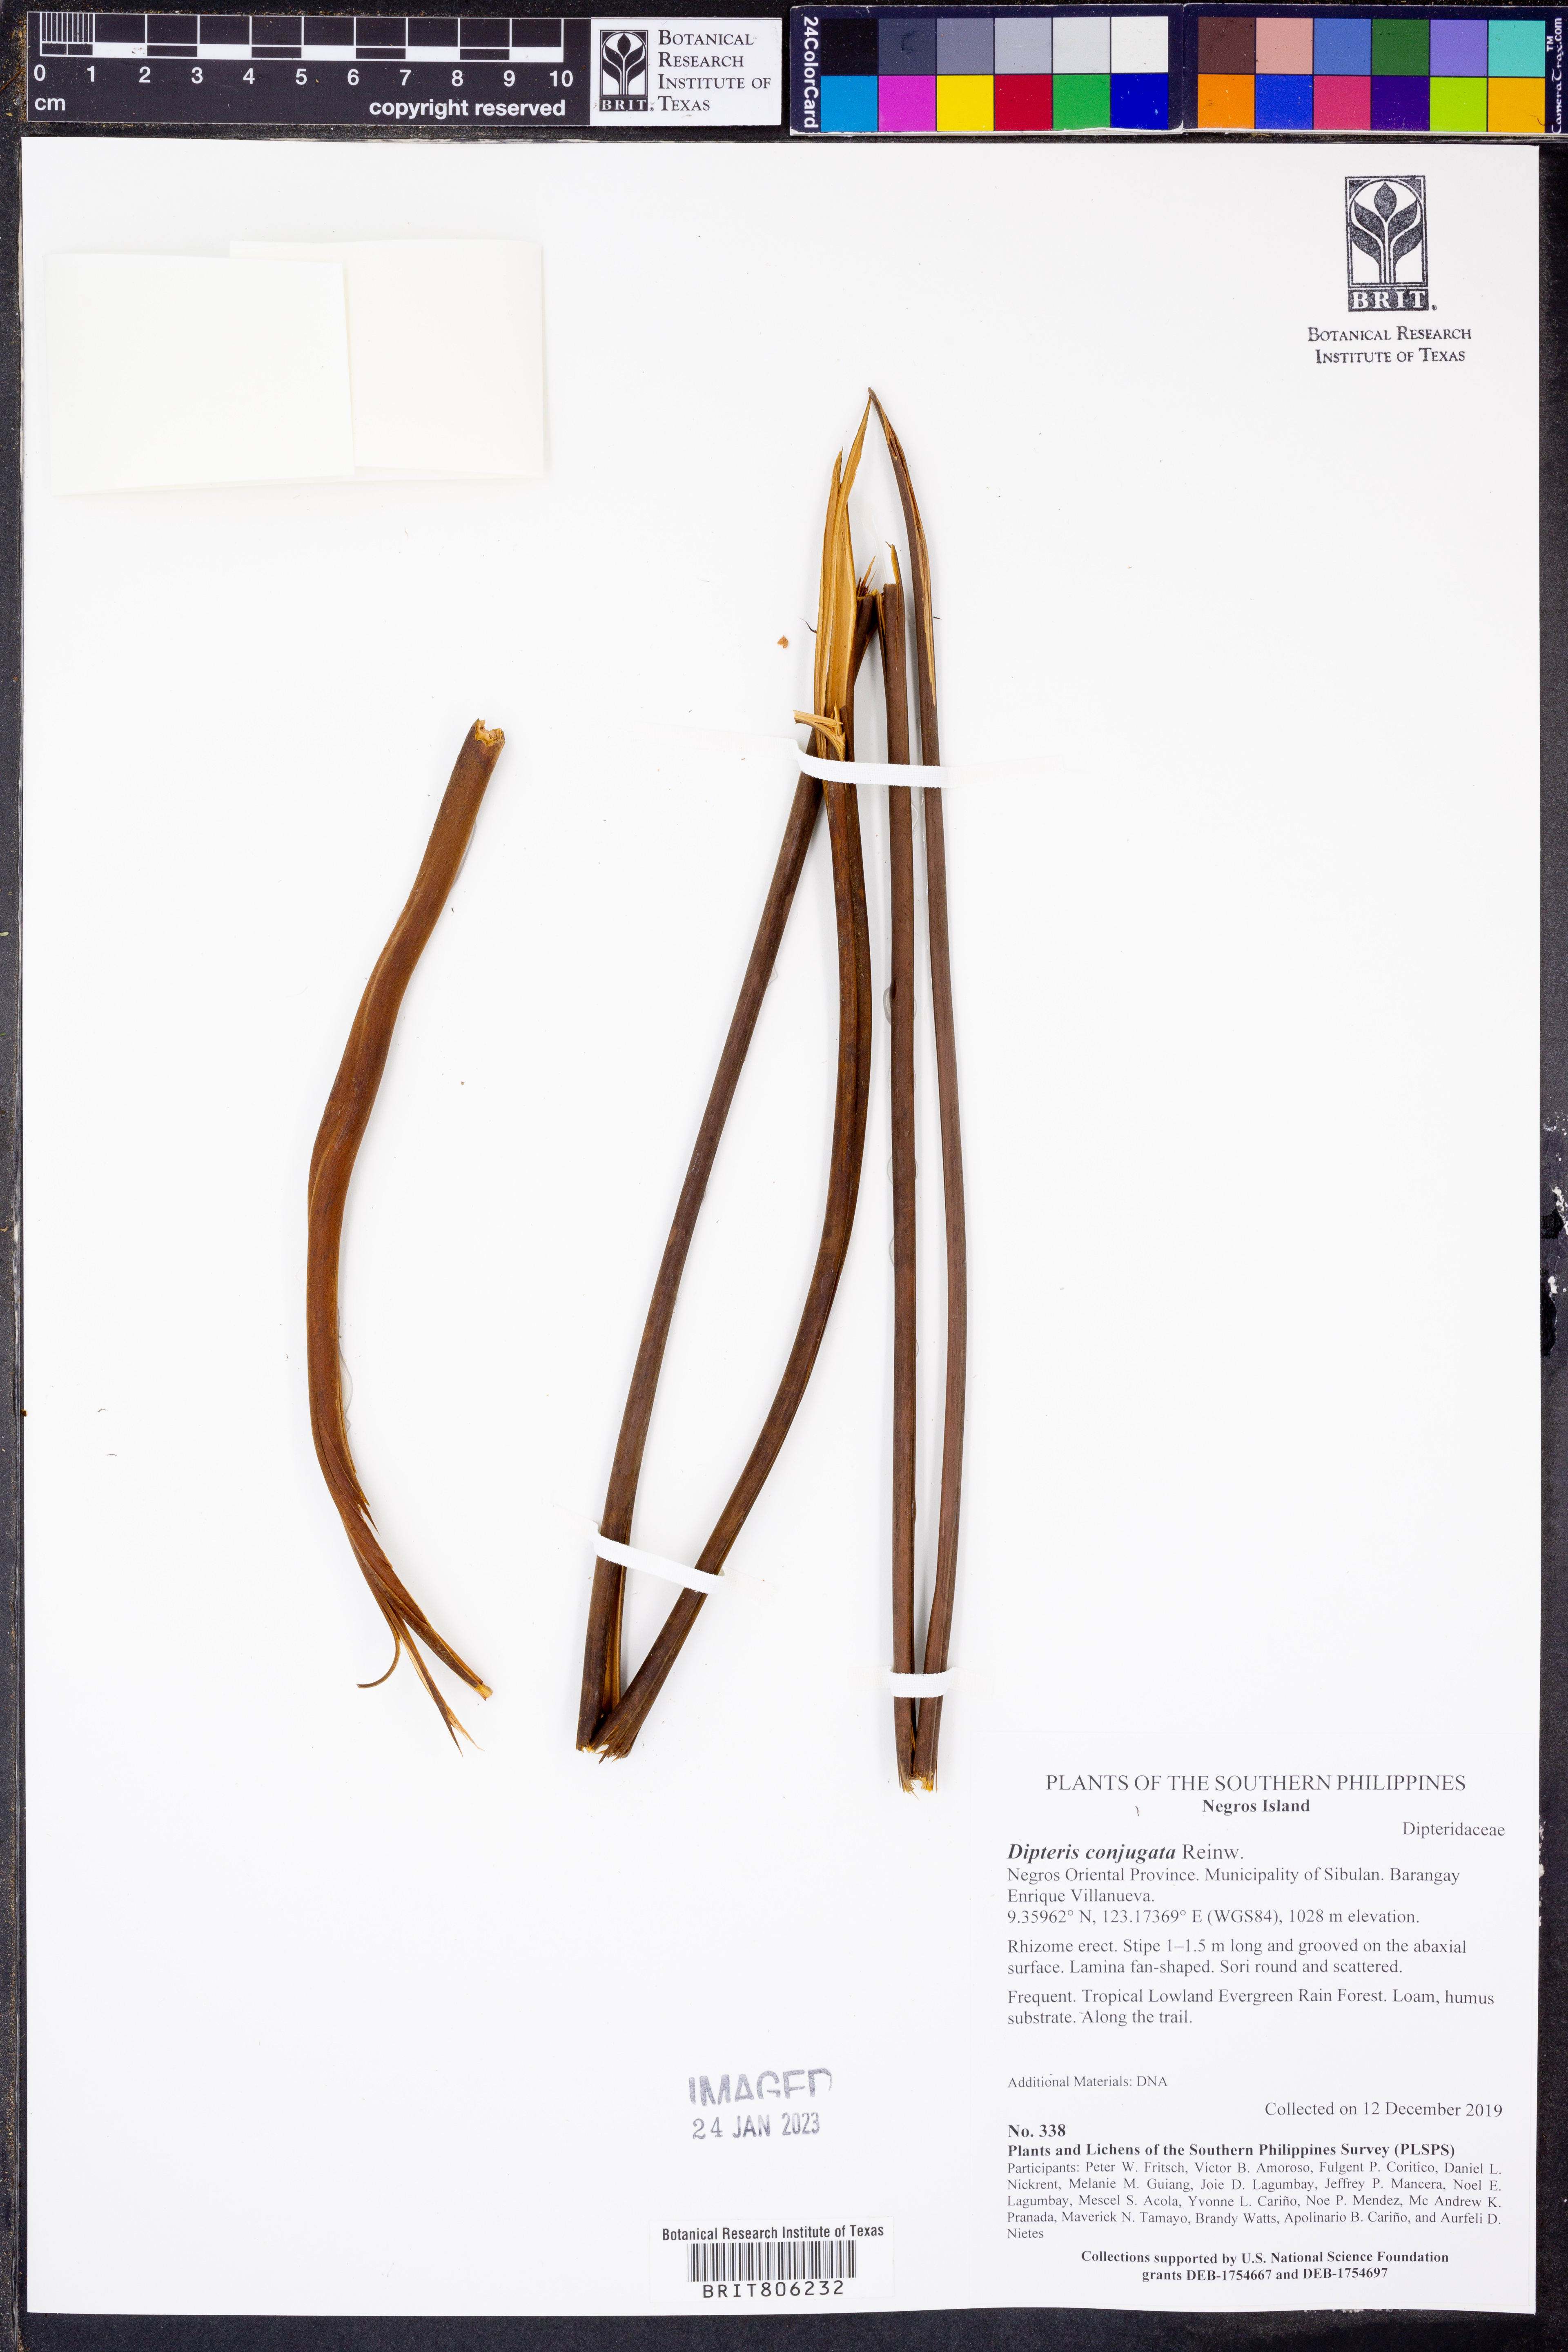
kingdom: Plantae
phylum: Tracheophyta
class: Polypodiopsida
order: Gleicheniales
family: Dipteridaceae
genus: Dipteris
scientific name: Dipteris conjugata
